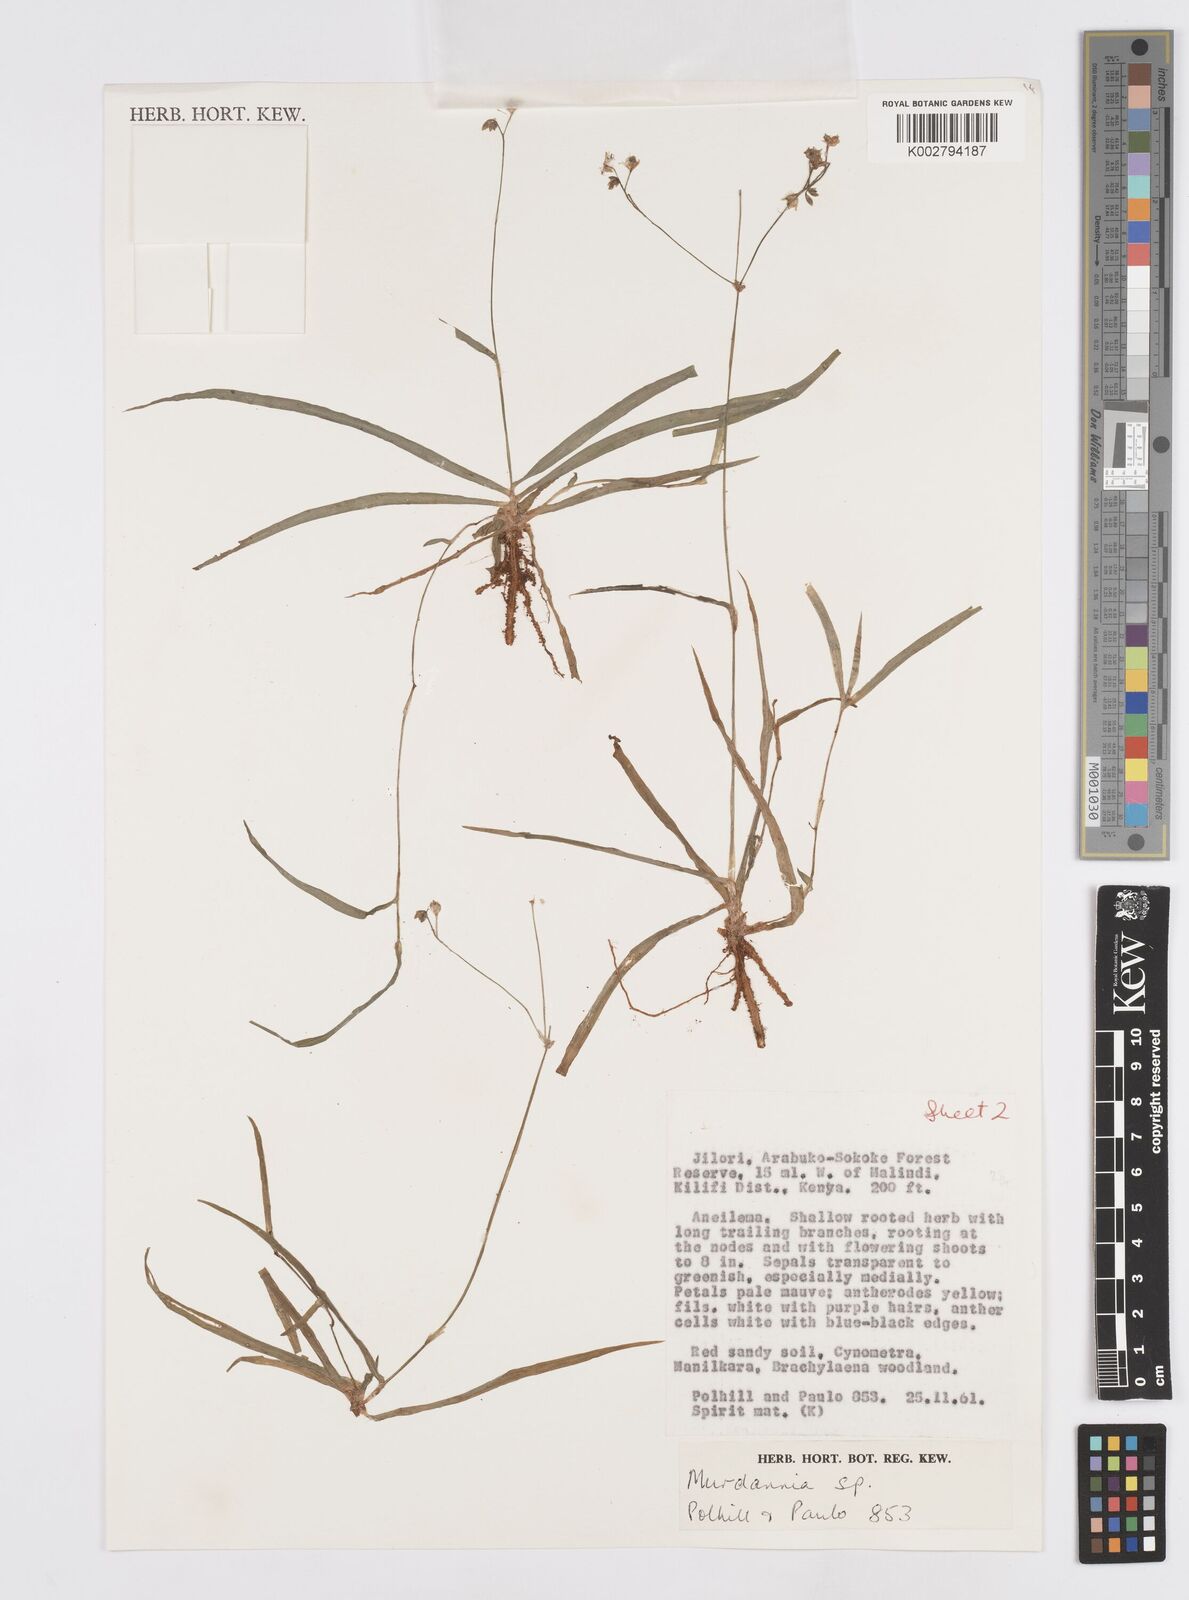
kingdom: Plantae
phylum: Tracheophyta
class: Liliopsida
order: Commelinales
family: Commelinaceae
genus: Murdannia
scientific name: Murdannia
